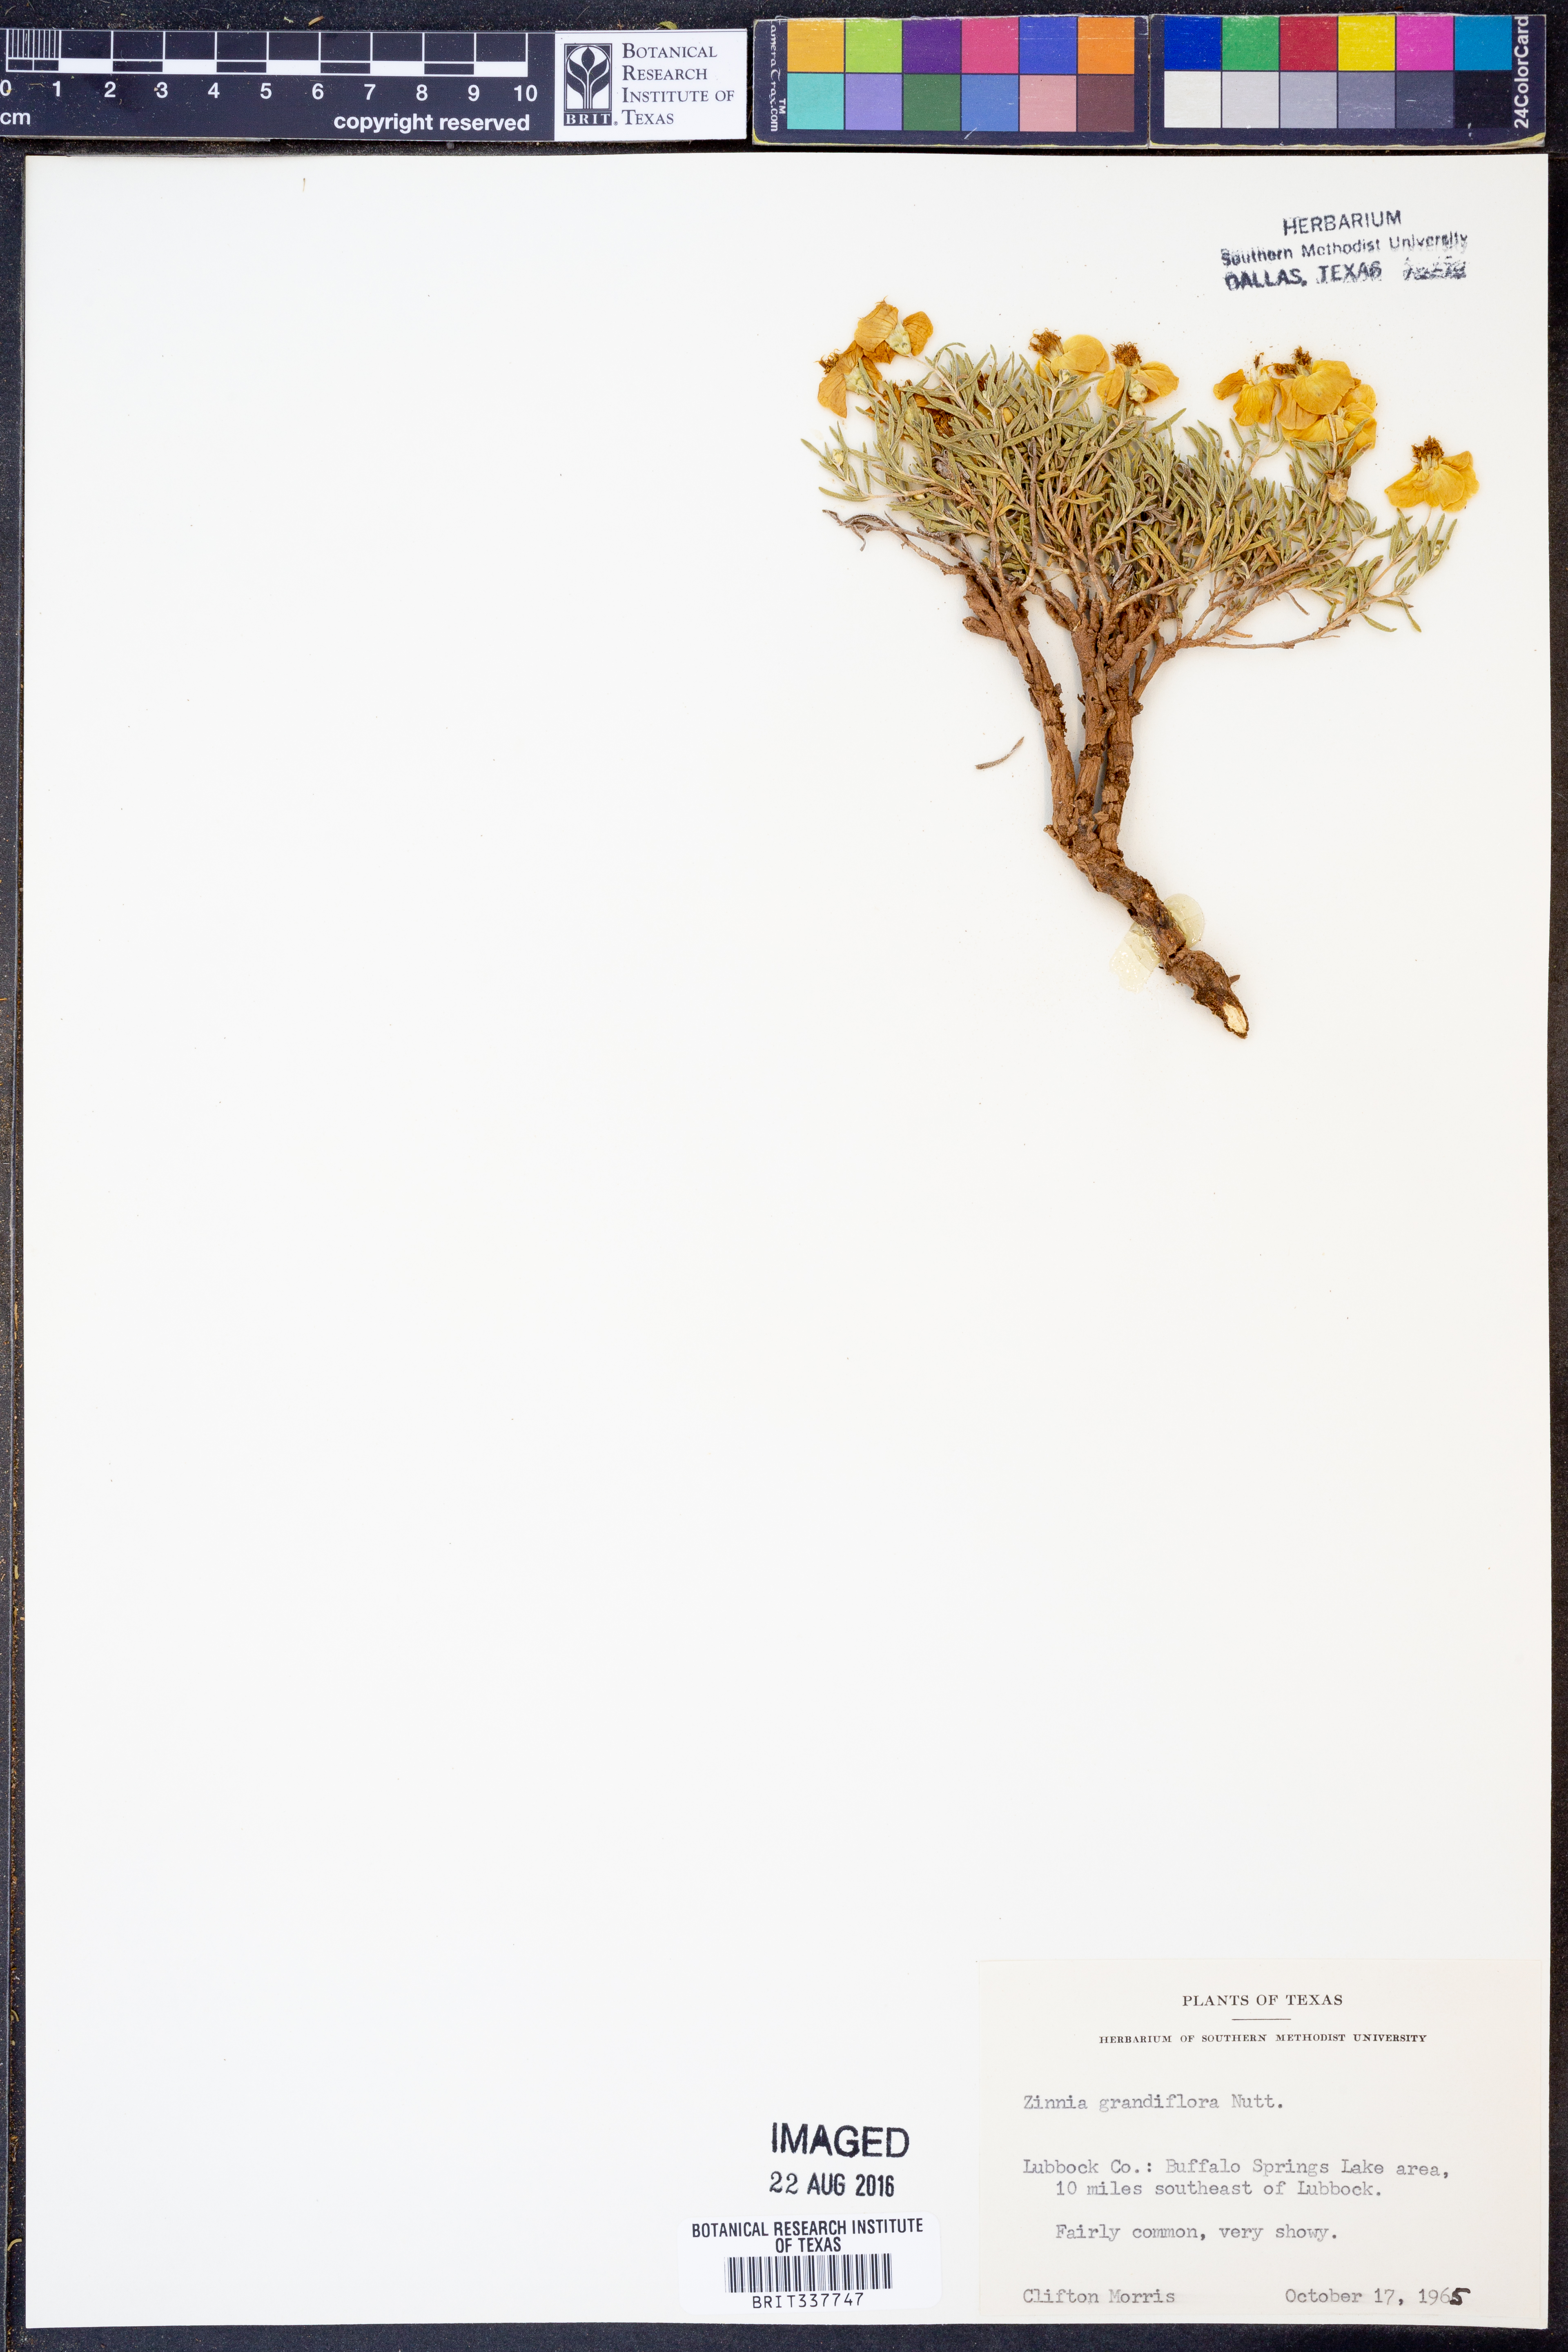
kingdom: Plantae
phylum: Tracheophyta
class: Magnoliopsida
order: Asterales
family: Asteraceae
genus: Zinnia
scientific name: Zinnia grandiflora
